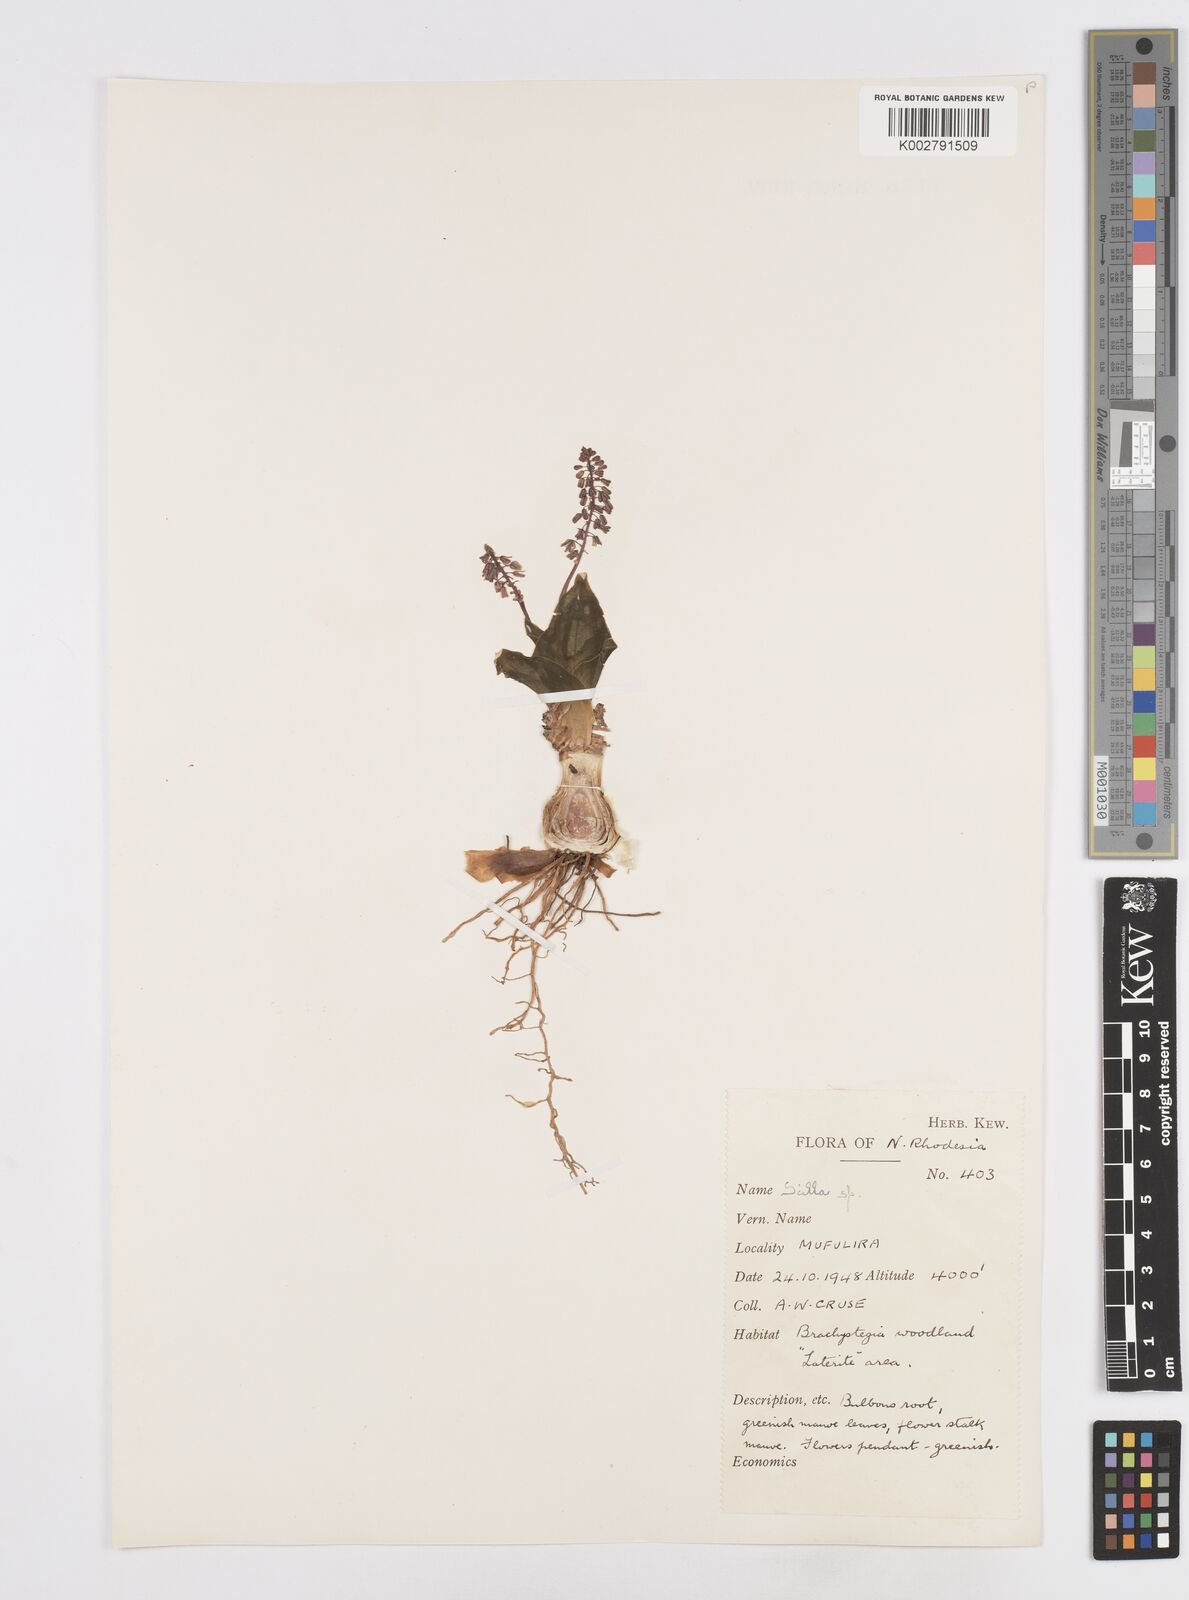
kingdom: Plantae
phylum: Tracheophyta
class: Liliopsida
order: Asparagales
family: Asparagaceae
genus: Scilla
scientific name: Scilla
